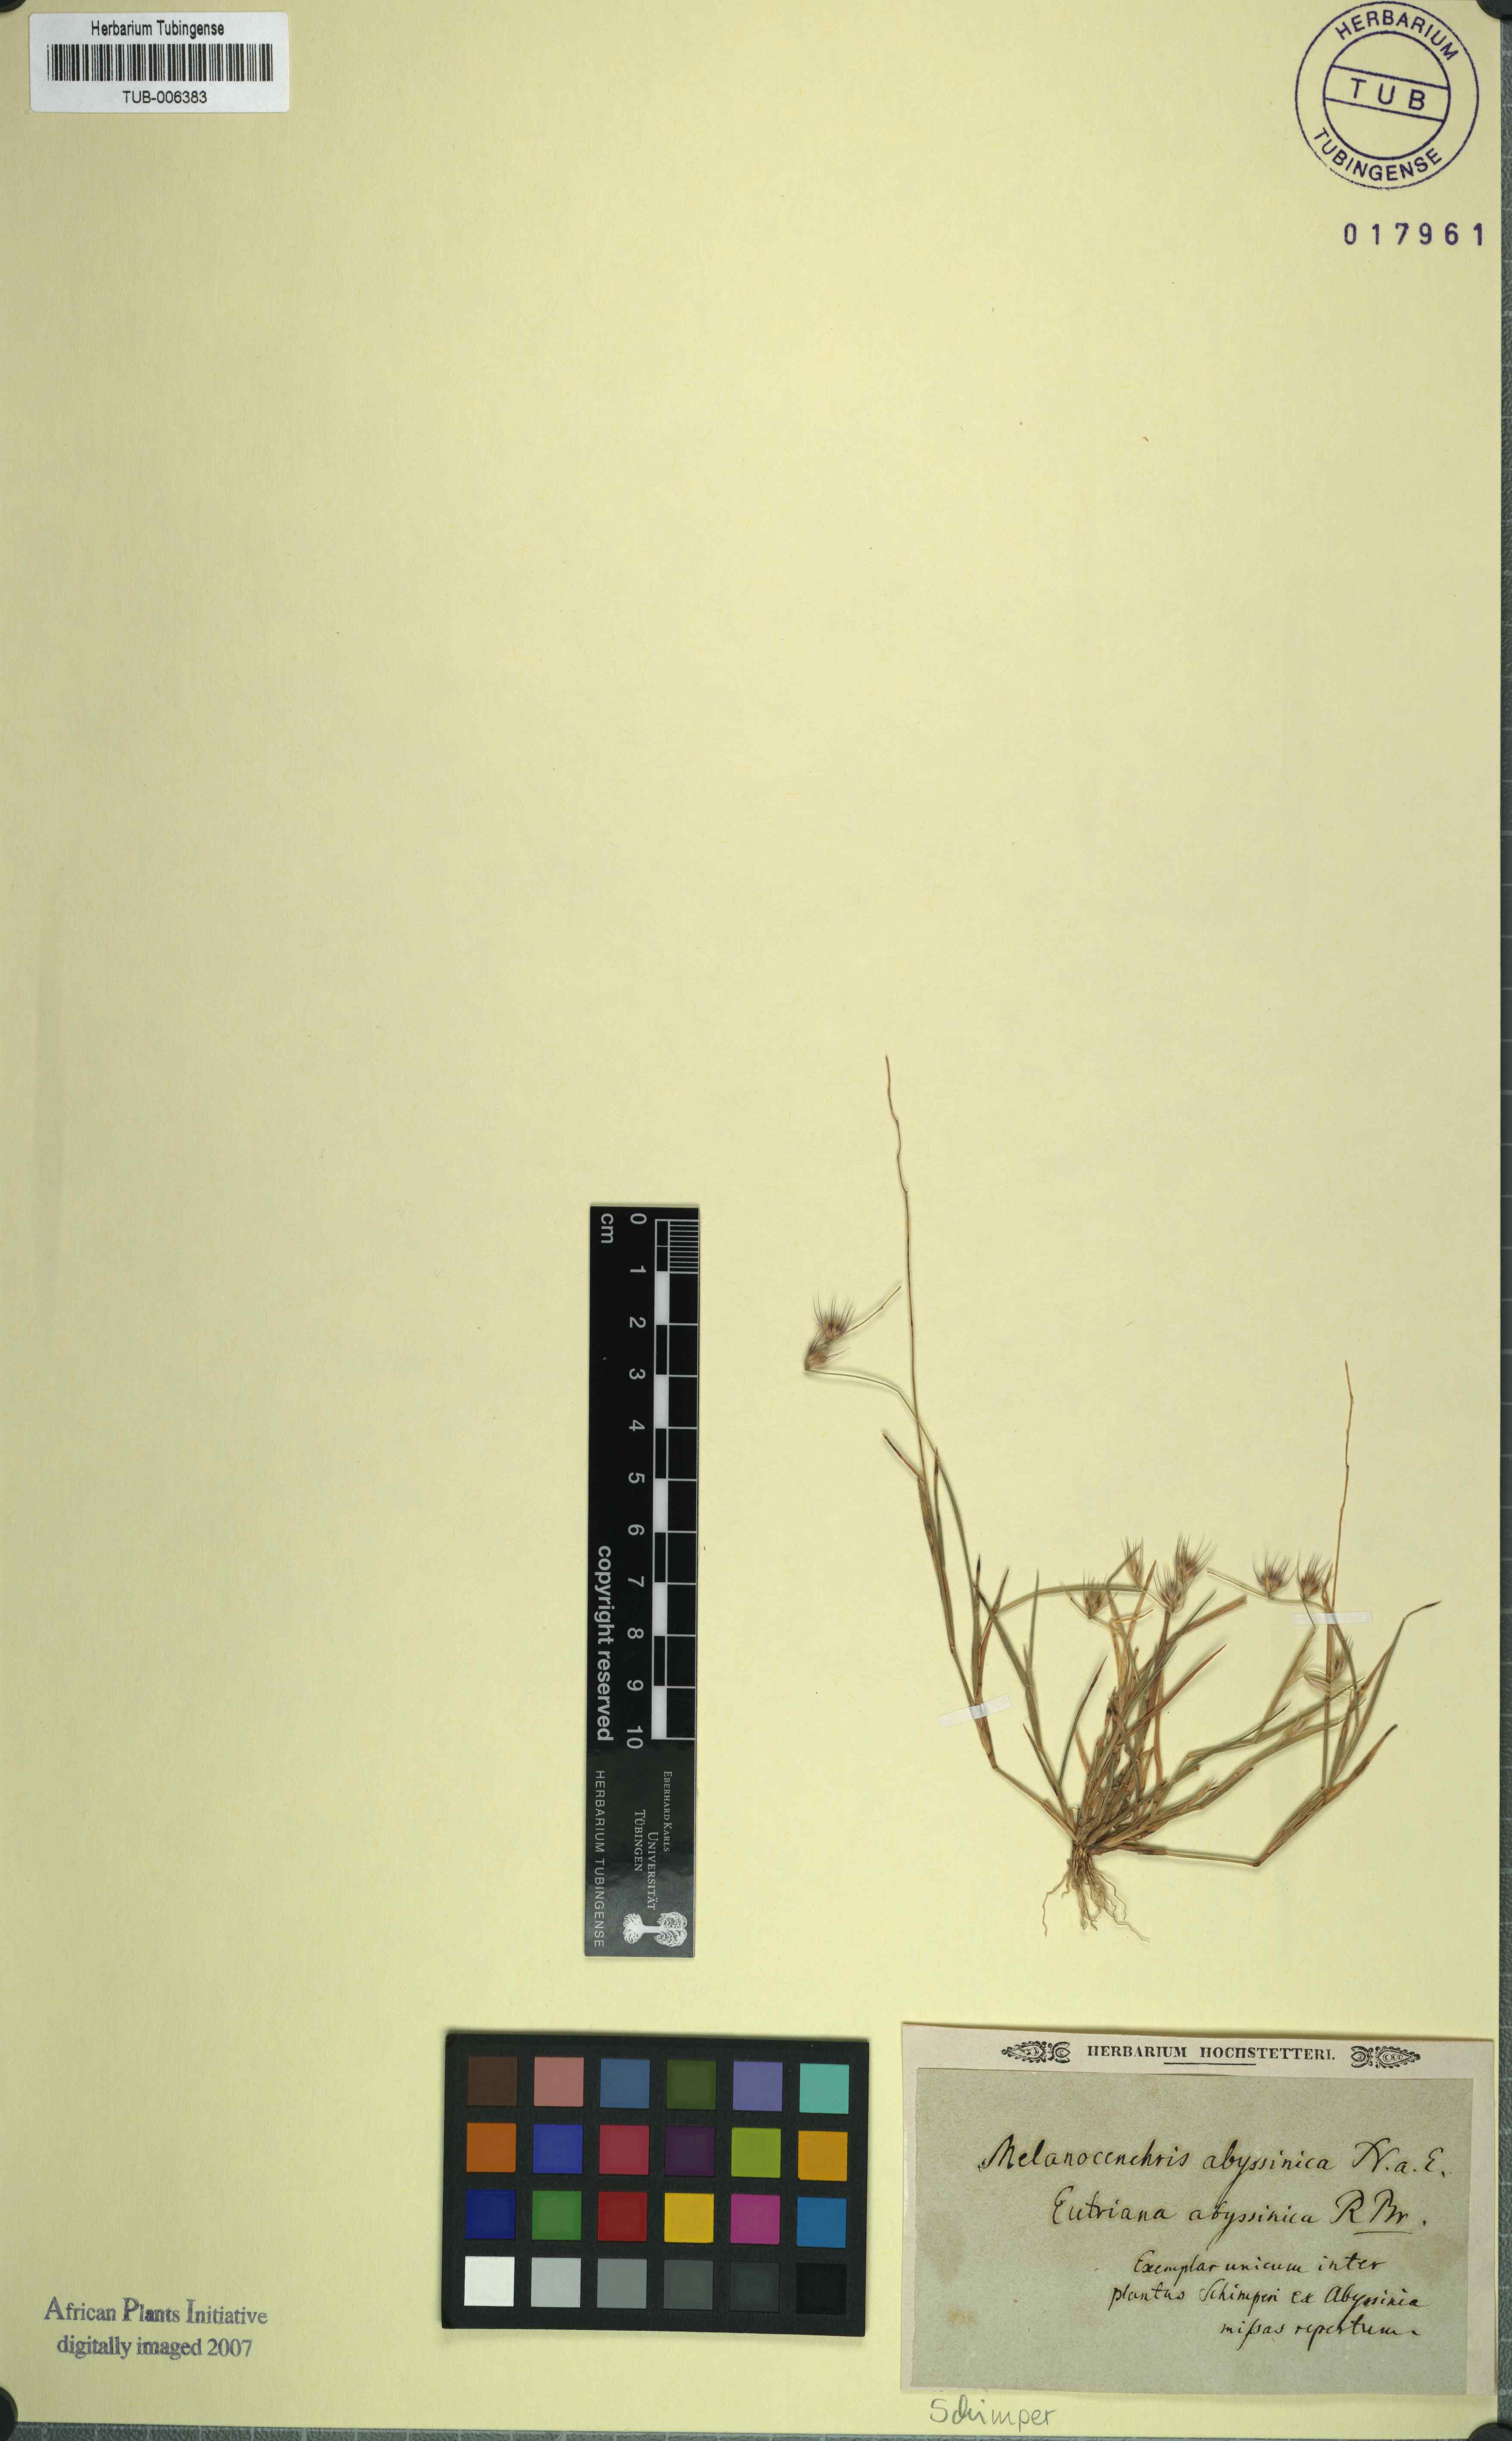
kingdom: Plantae
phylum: Tracheophyta
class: Liliopsida
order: Poales
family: Poaceae
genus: Melanocenchris
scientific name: Melanocenchris abyssinica
